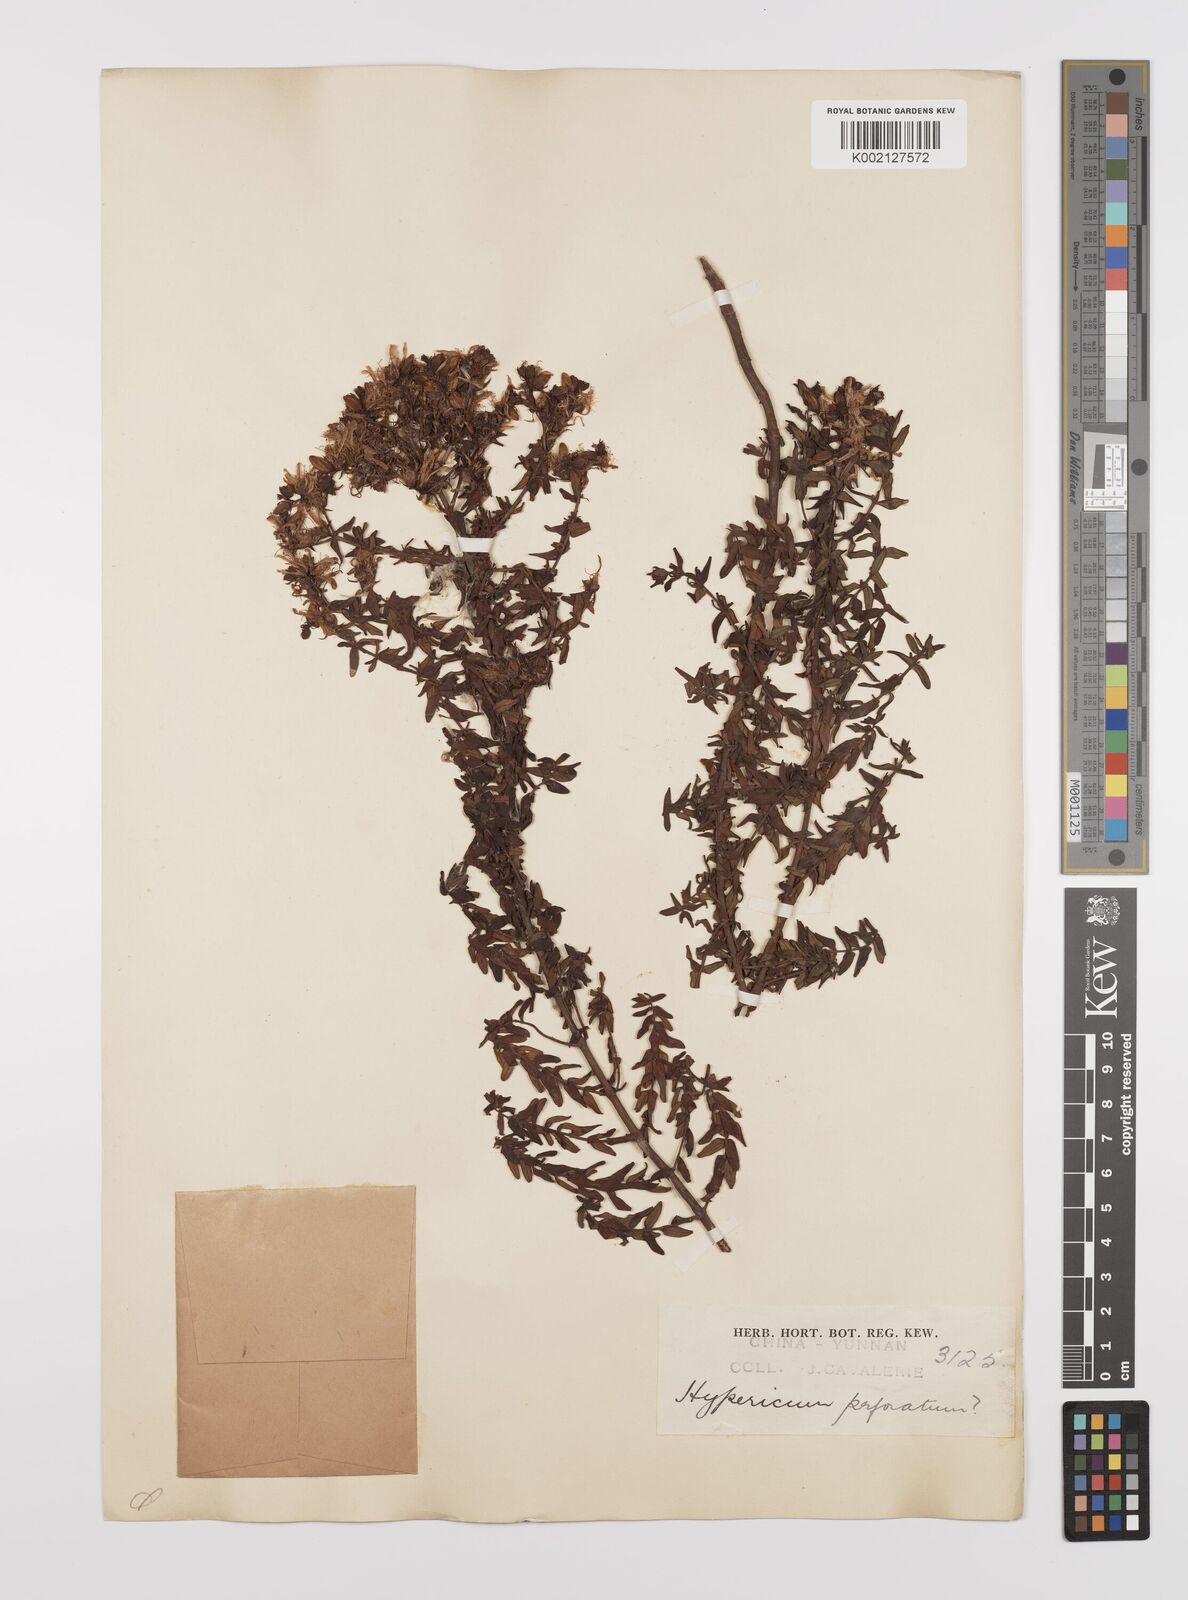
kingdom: Plantae
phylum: Tracheophyta
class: Magnoliopsida
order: Malpighiales
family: Hypericaceae
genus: Hypericum
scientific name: Hypericum perforatum
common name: Common st. johnswort
